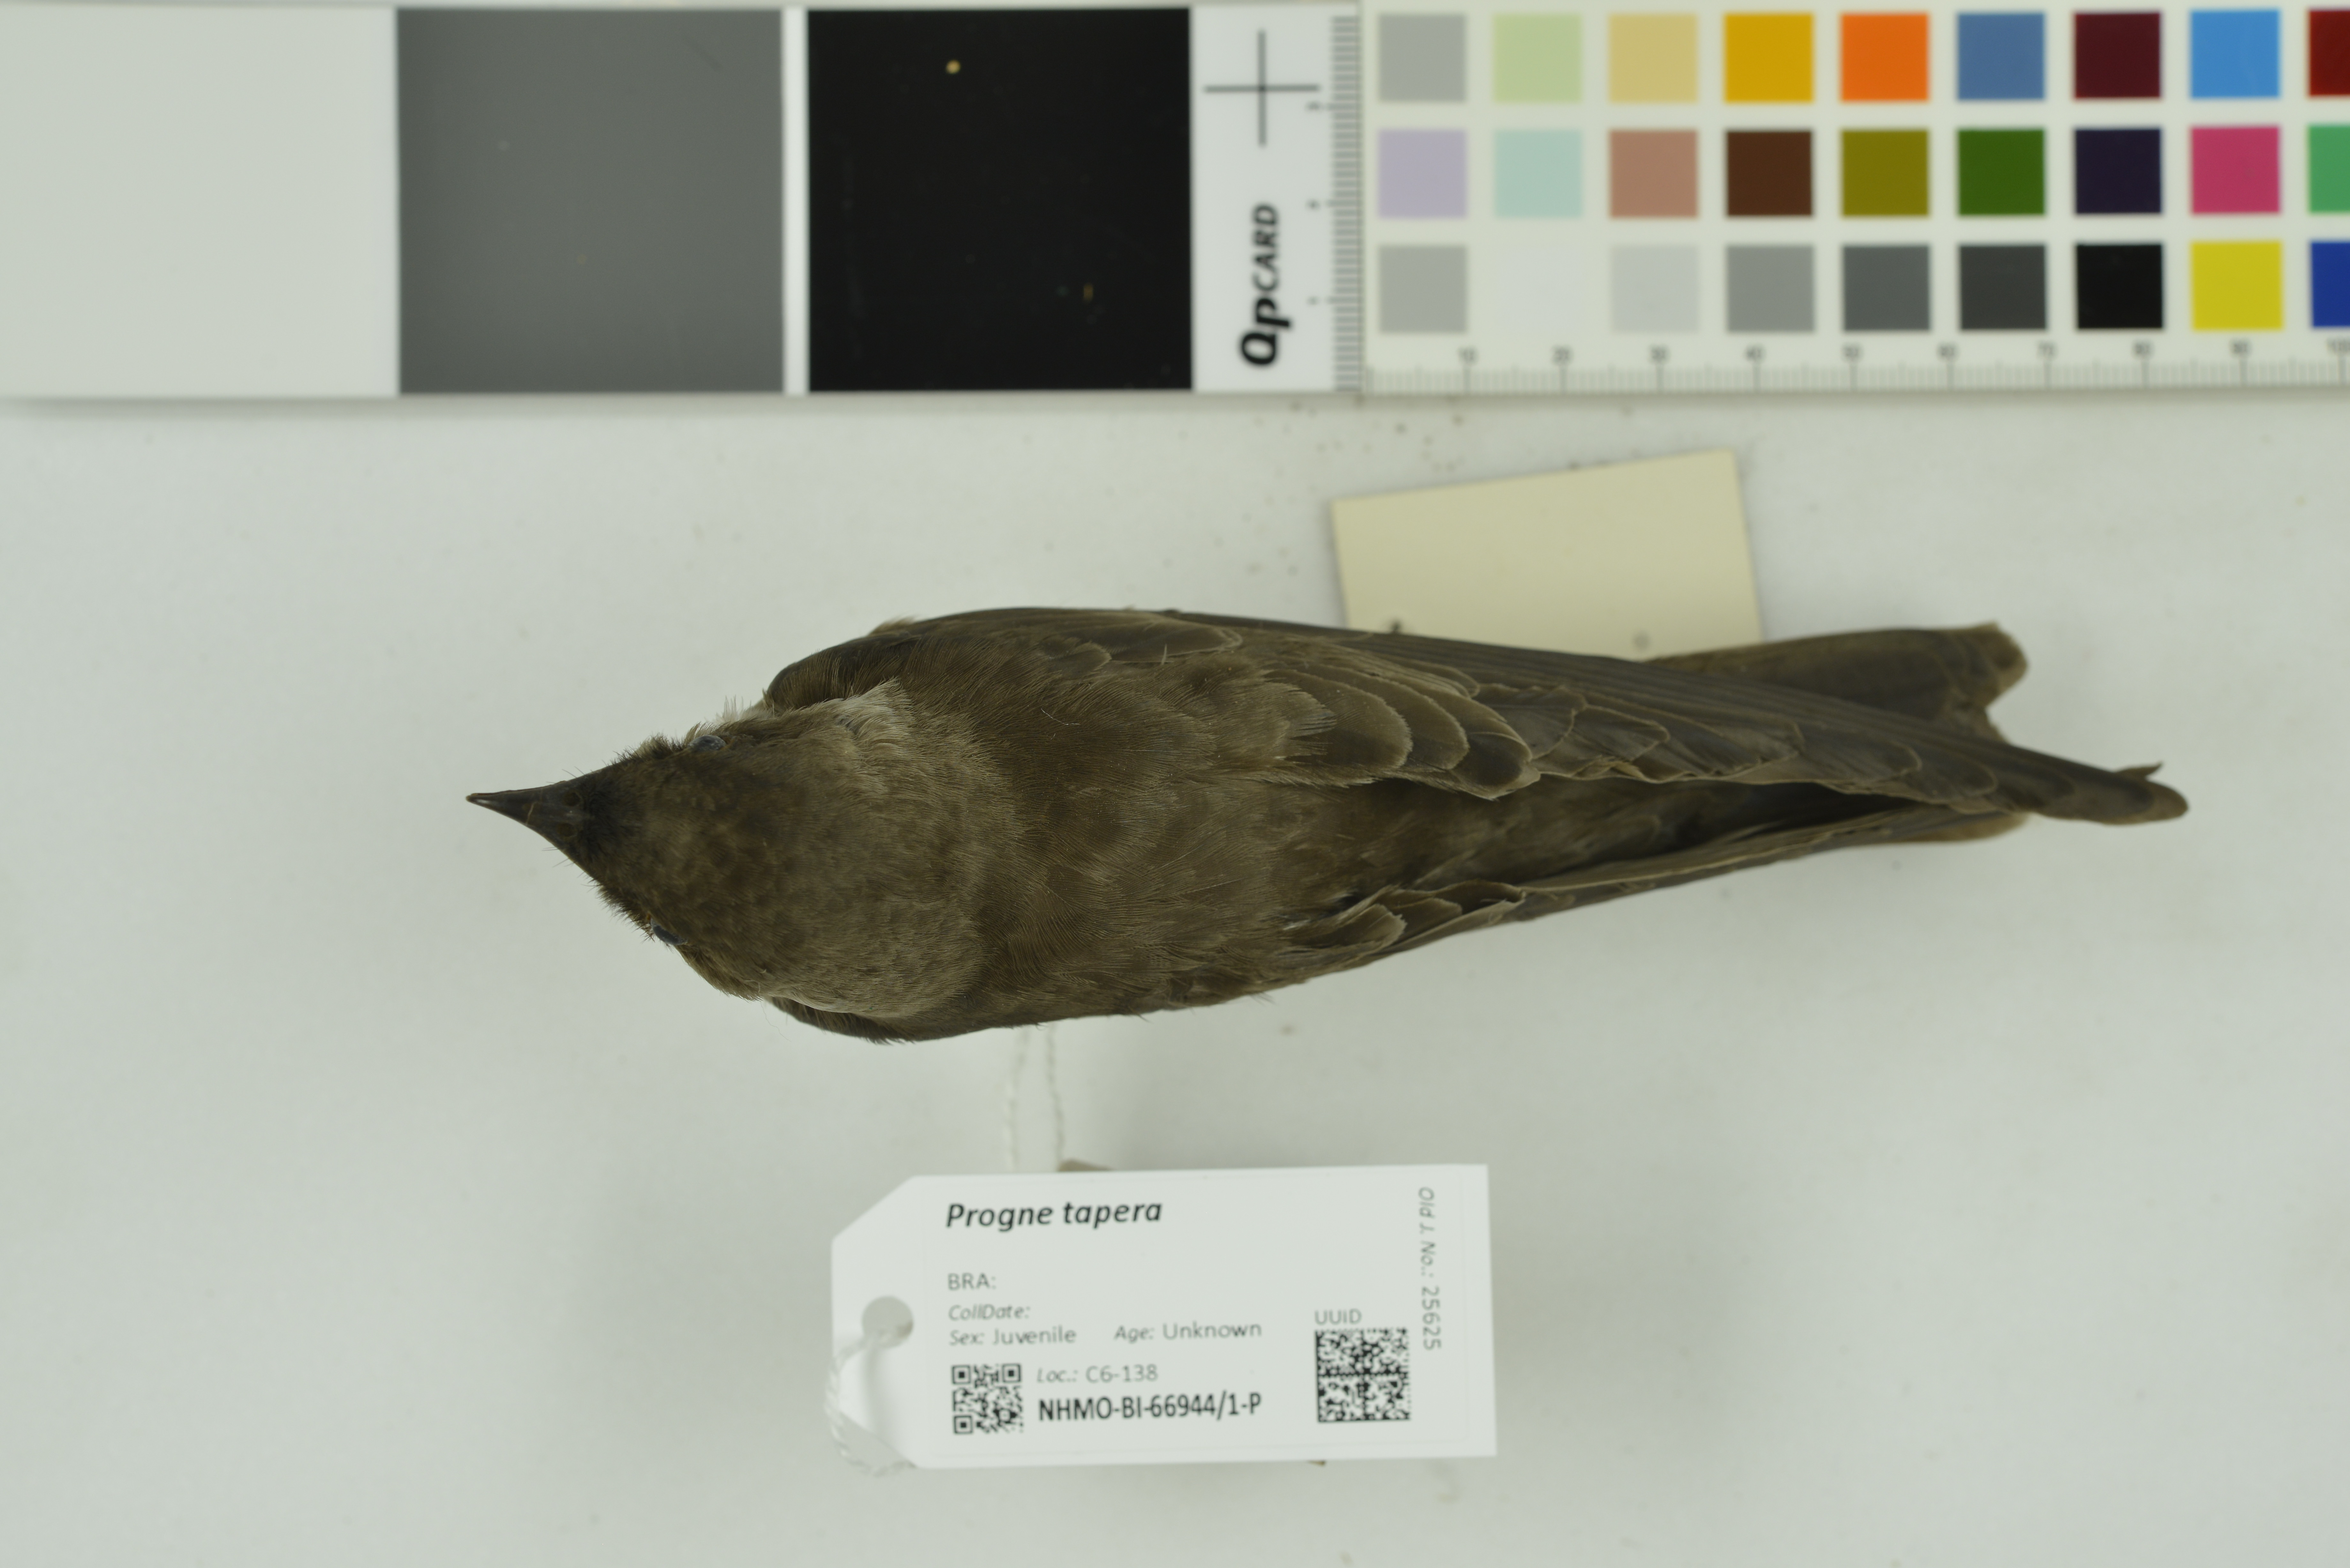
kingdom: Animalia
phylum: Chordata
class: Aves
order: Passeriformes
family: Hirundinidae
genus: Progne
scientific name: Progne tapera
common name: Brown-chested martin
